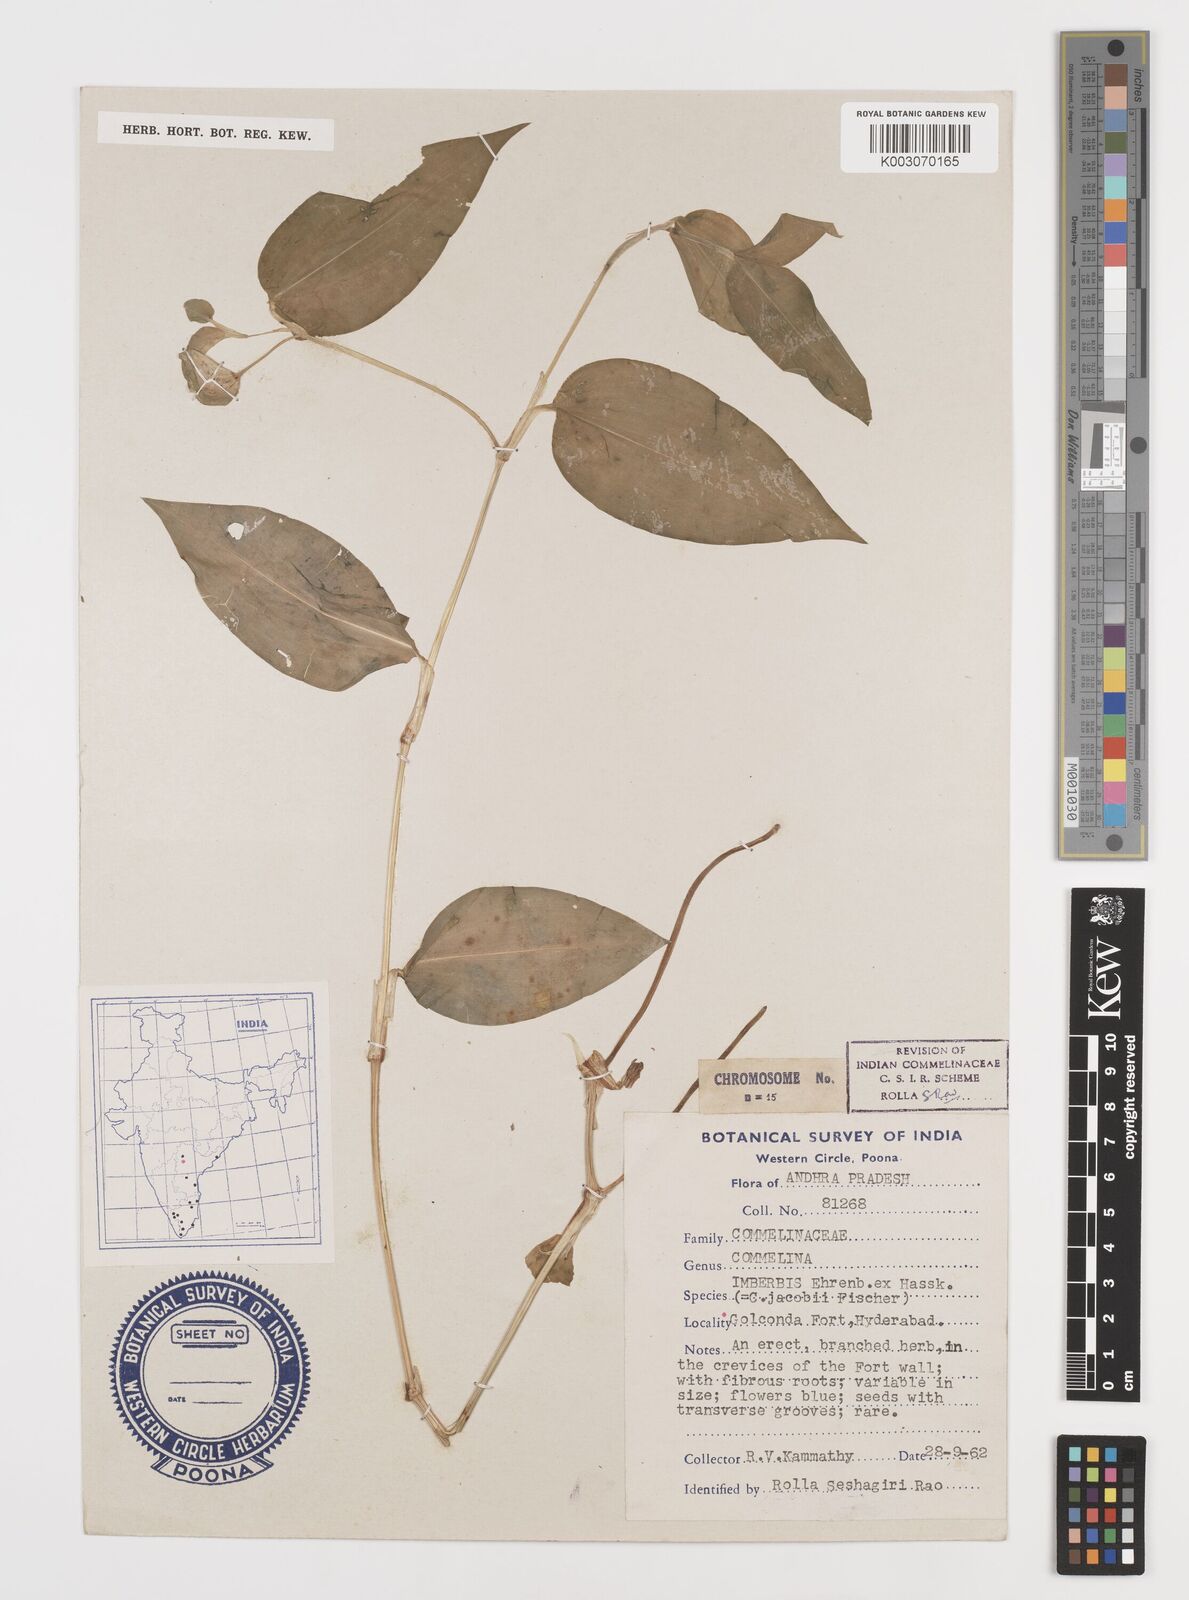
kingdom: Plantae
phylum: Tracheophyta
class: Liliopsida
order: Commelinales
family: Commelinaceae
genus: Commelina
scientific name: Commelina petersii
